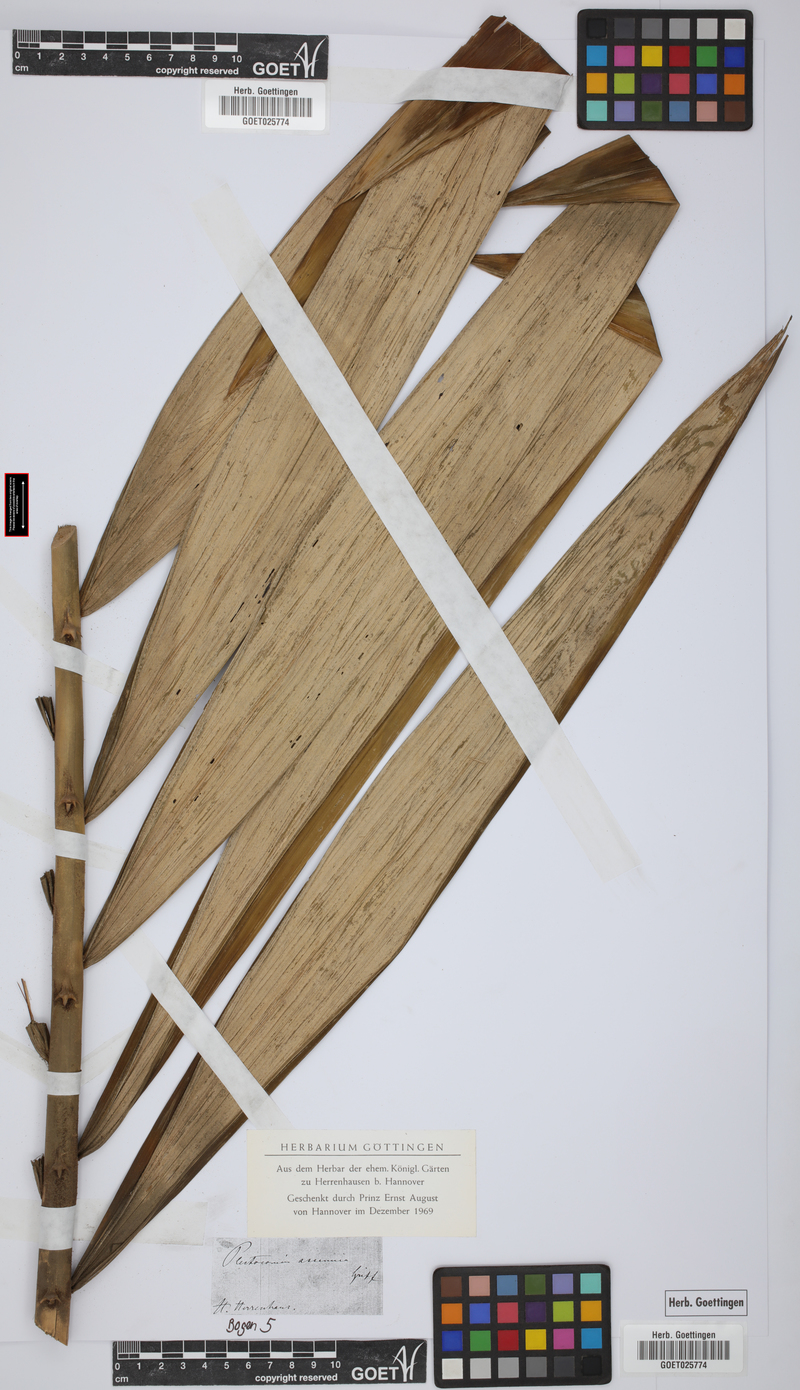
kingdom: Plantae
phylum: Tracheophyta
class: Liliopsida
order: Arecales
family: Arecaceae
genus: Plectocomia
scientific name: Plectocomia assamica
